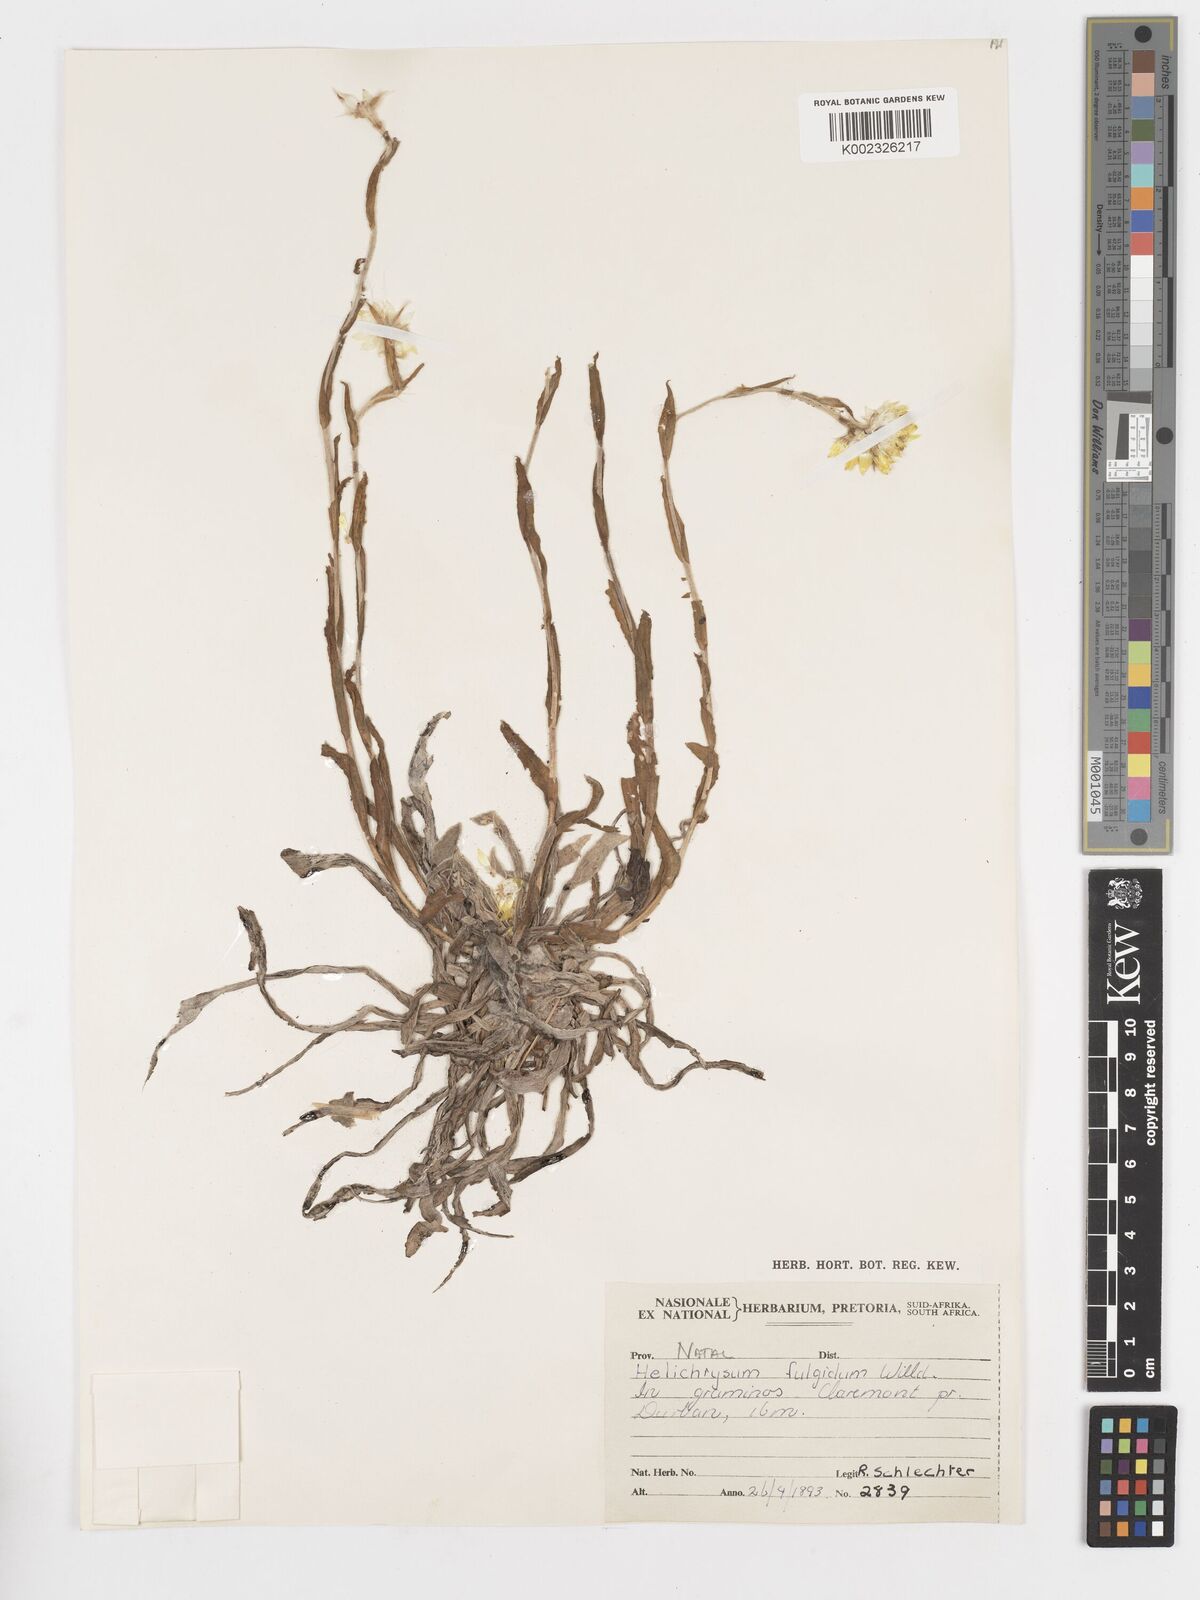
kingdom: Plantae
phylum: Tracheophyta
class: Magnoliopsida
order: Asterales
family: Asteraceae
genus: Helichrysum
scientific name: Helichrysum aureum
